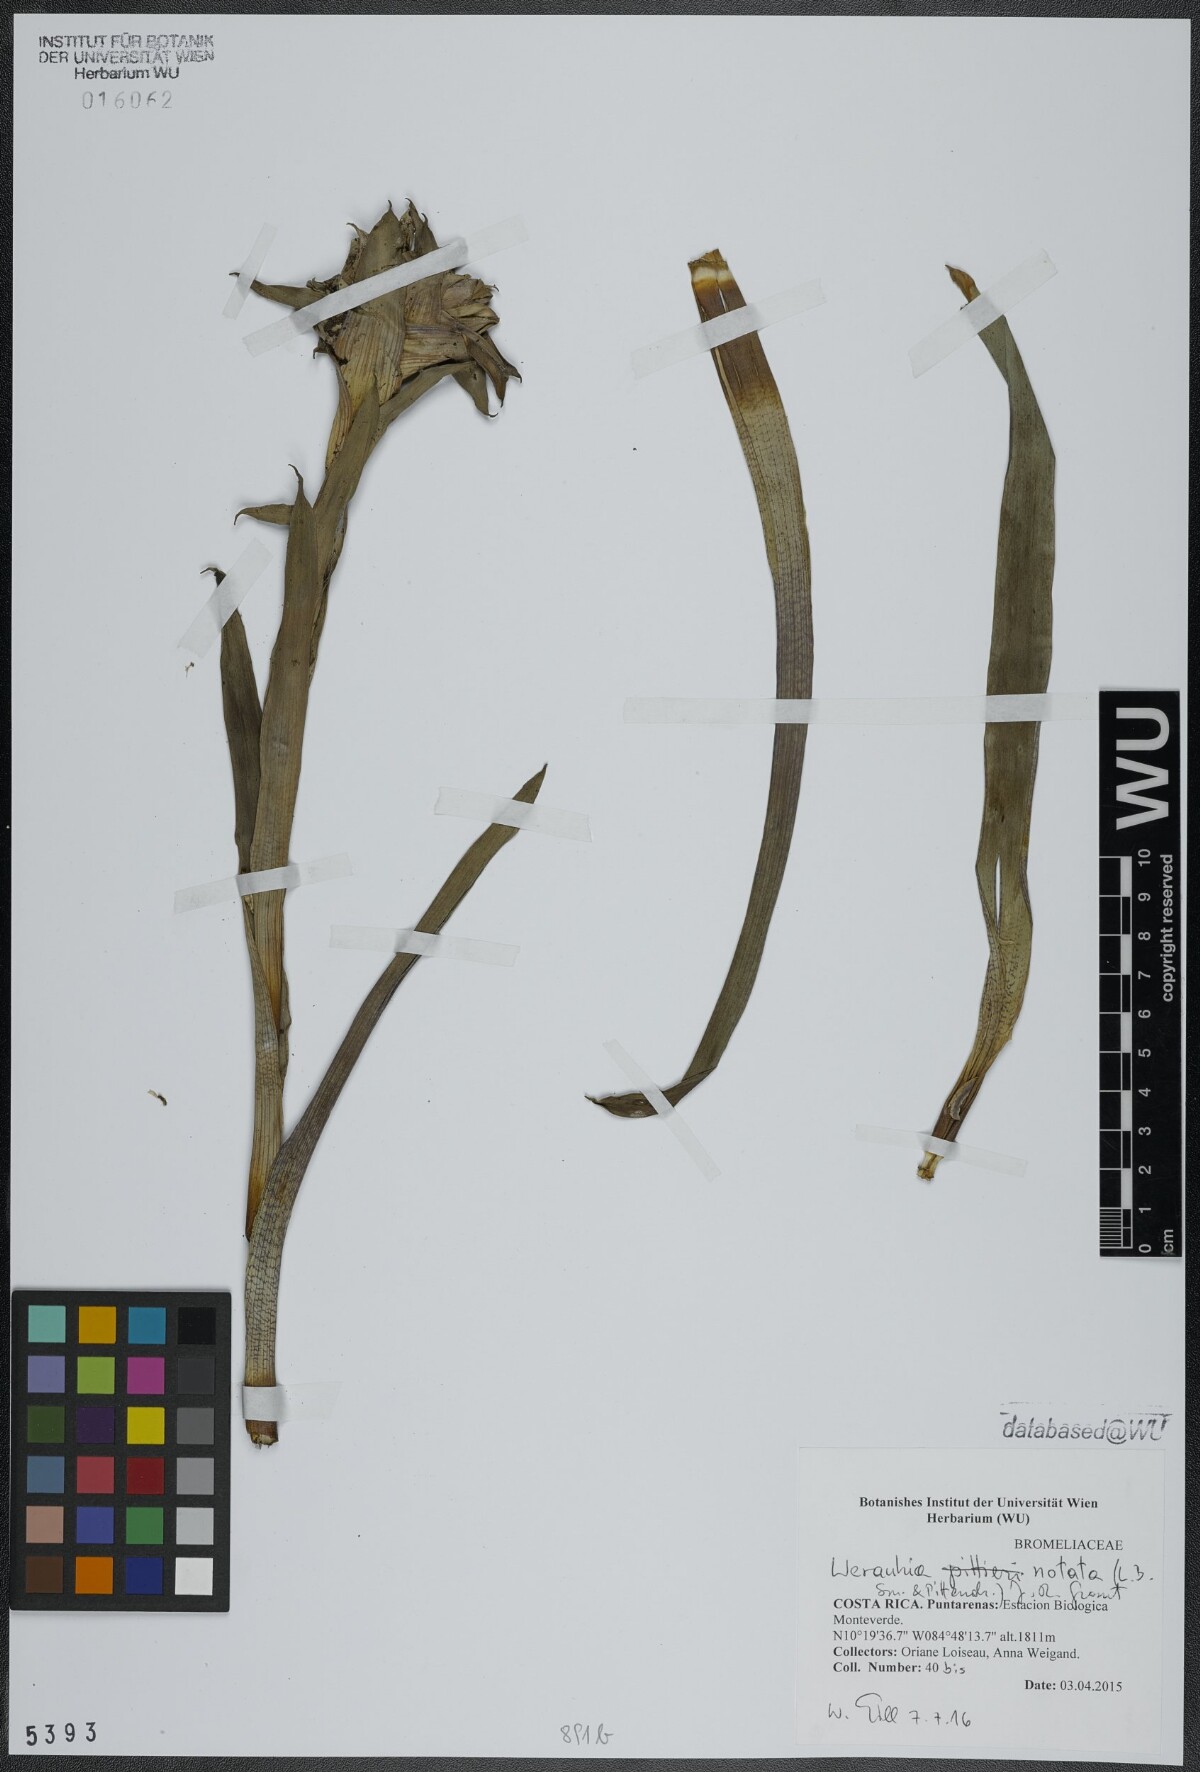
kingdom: Plantae
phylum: Tracheophyta
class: Liliopsida
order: Poales
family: Bromeliaceae
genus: Werauhia
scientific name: Werauhia notata
